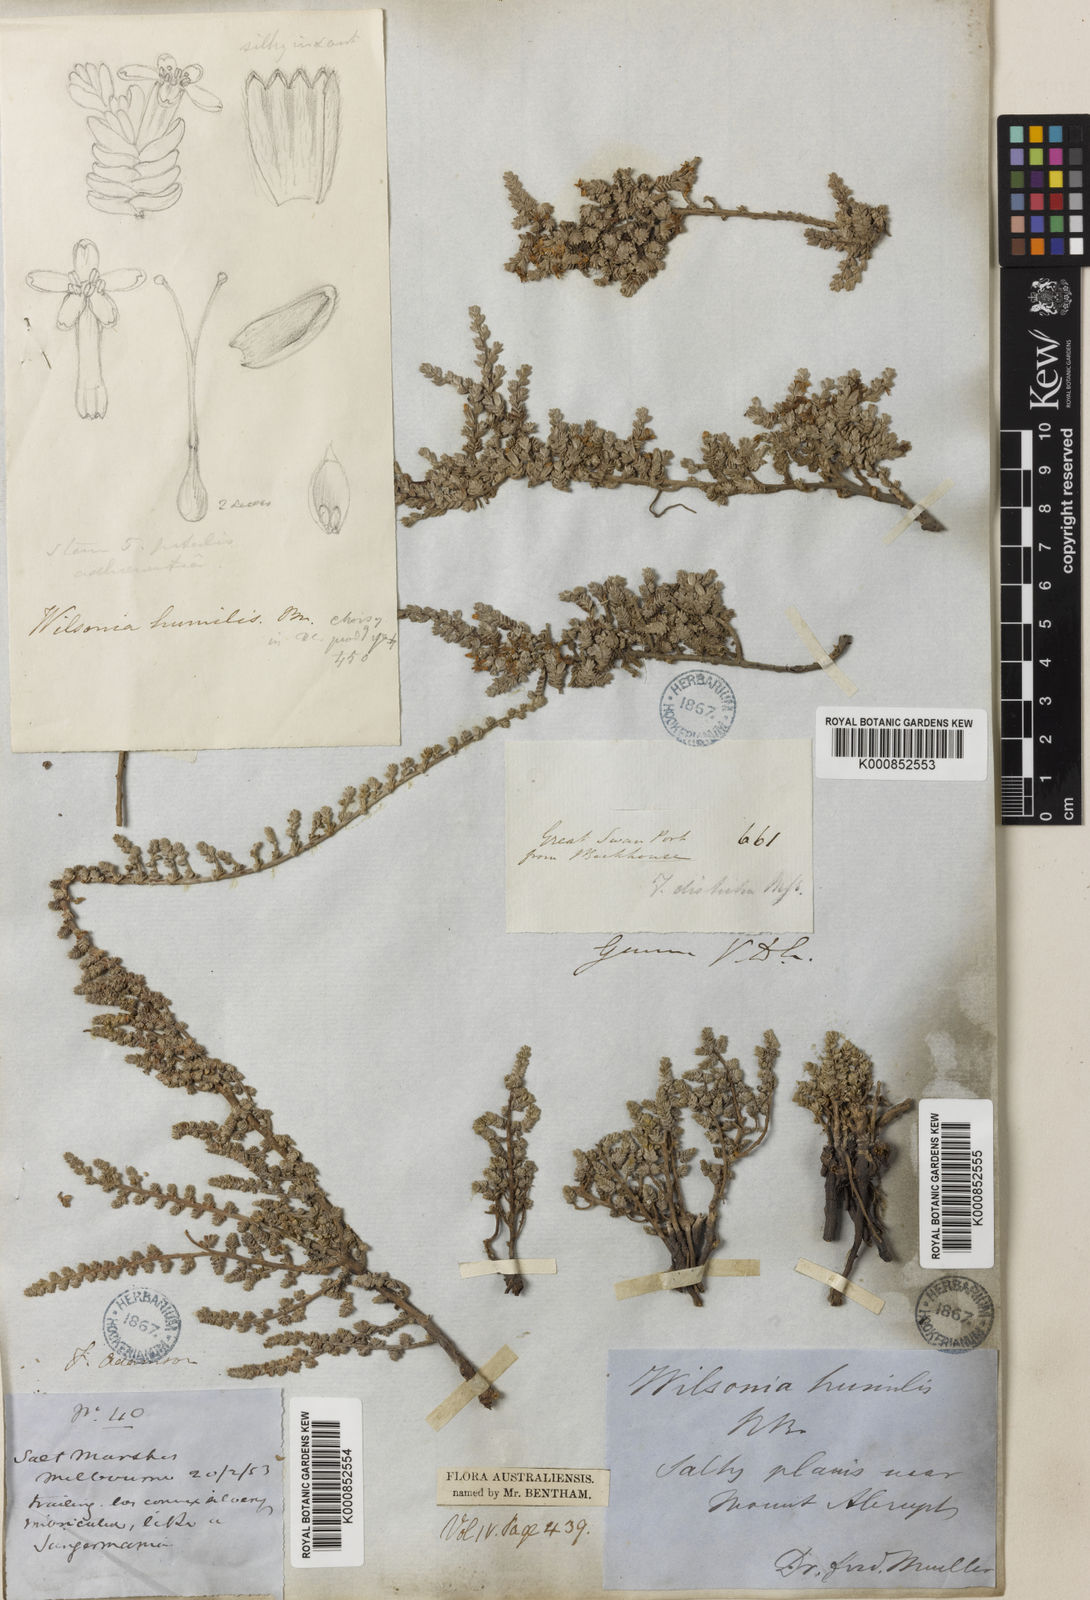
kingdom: Plantae
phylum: Tracheophyta
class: Magnoliopsida
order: Solanales
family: Convolvulaceae
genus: Wilsonia
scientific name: Wilsonia humilis
